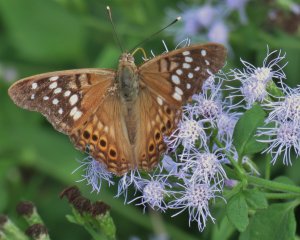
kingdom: Animalia
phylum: Arthropoda
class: Insecta
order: Lepidoptera
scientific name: Lepidoptera
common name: Butterflies
